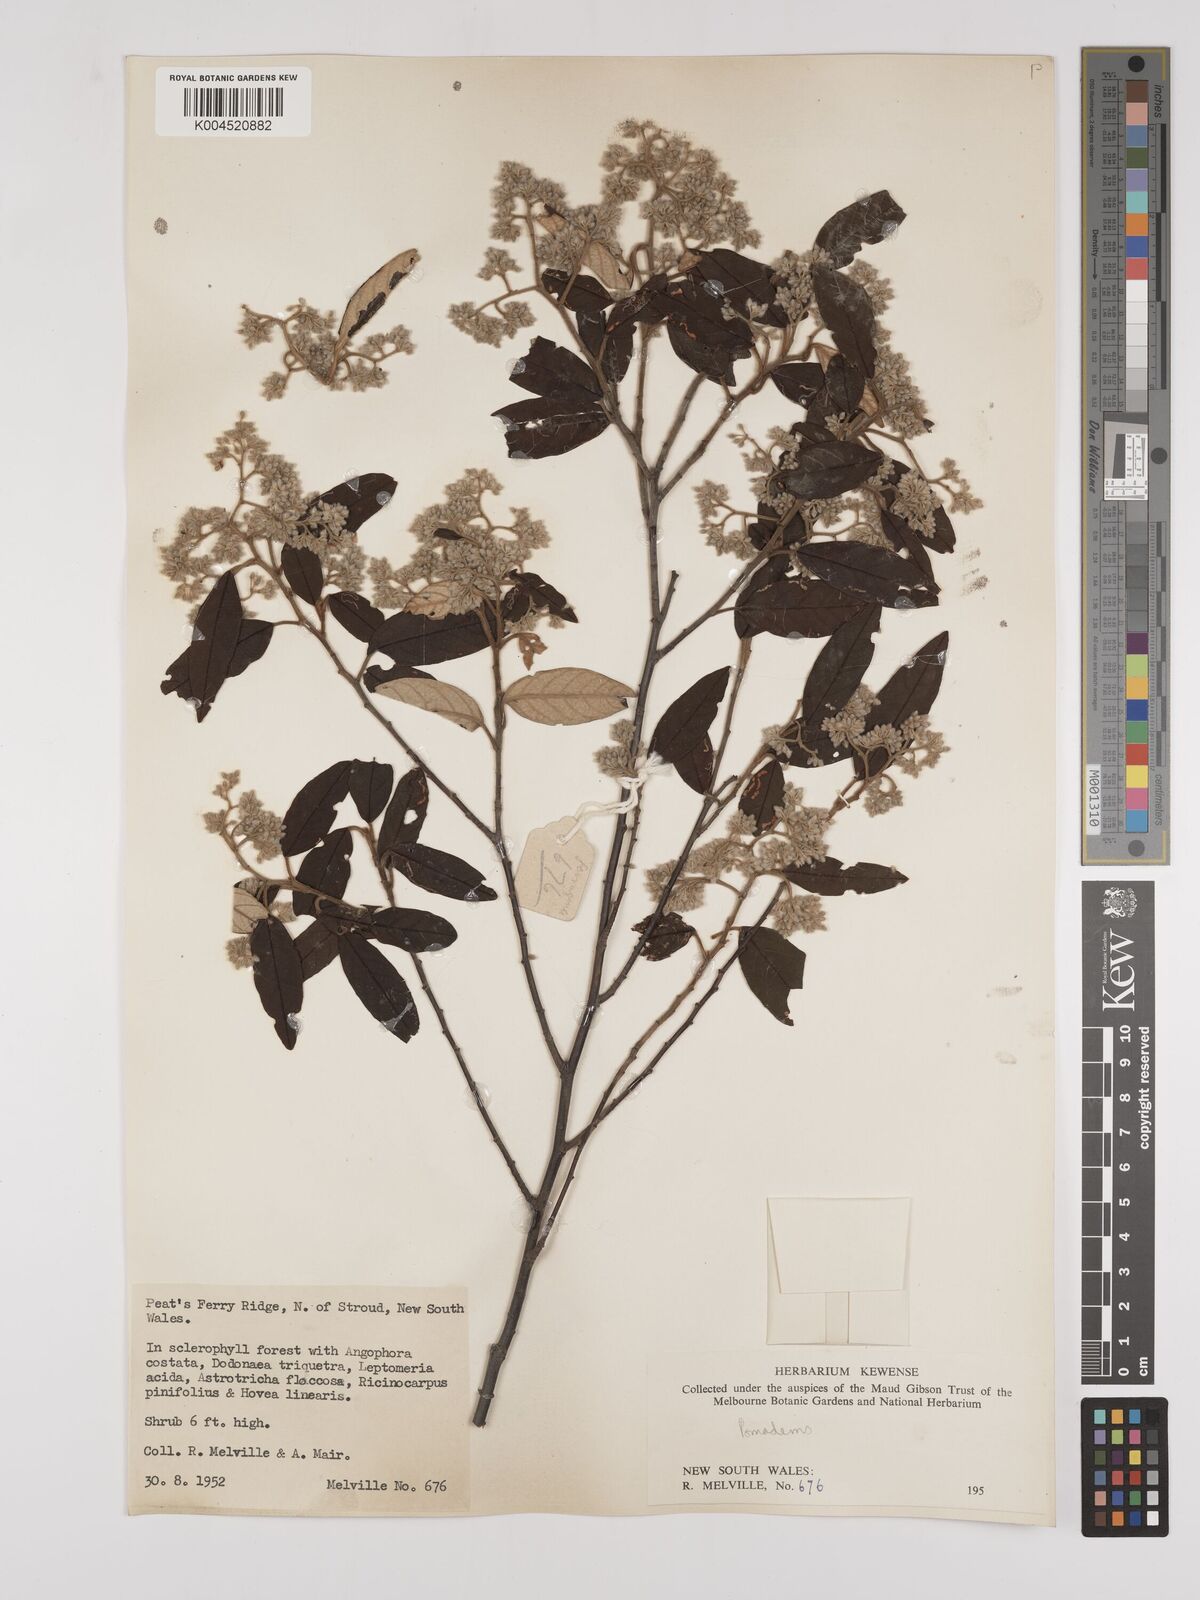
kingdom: Plantae
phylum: Tracheophyta
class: Magnoliopsida
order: Rosales
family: Rhamnaceae
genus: Pomaderris
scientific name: Pomaderris
